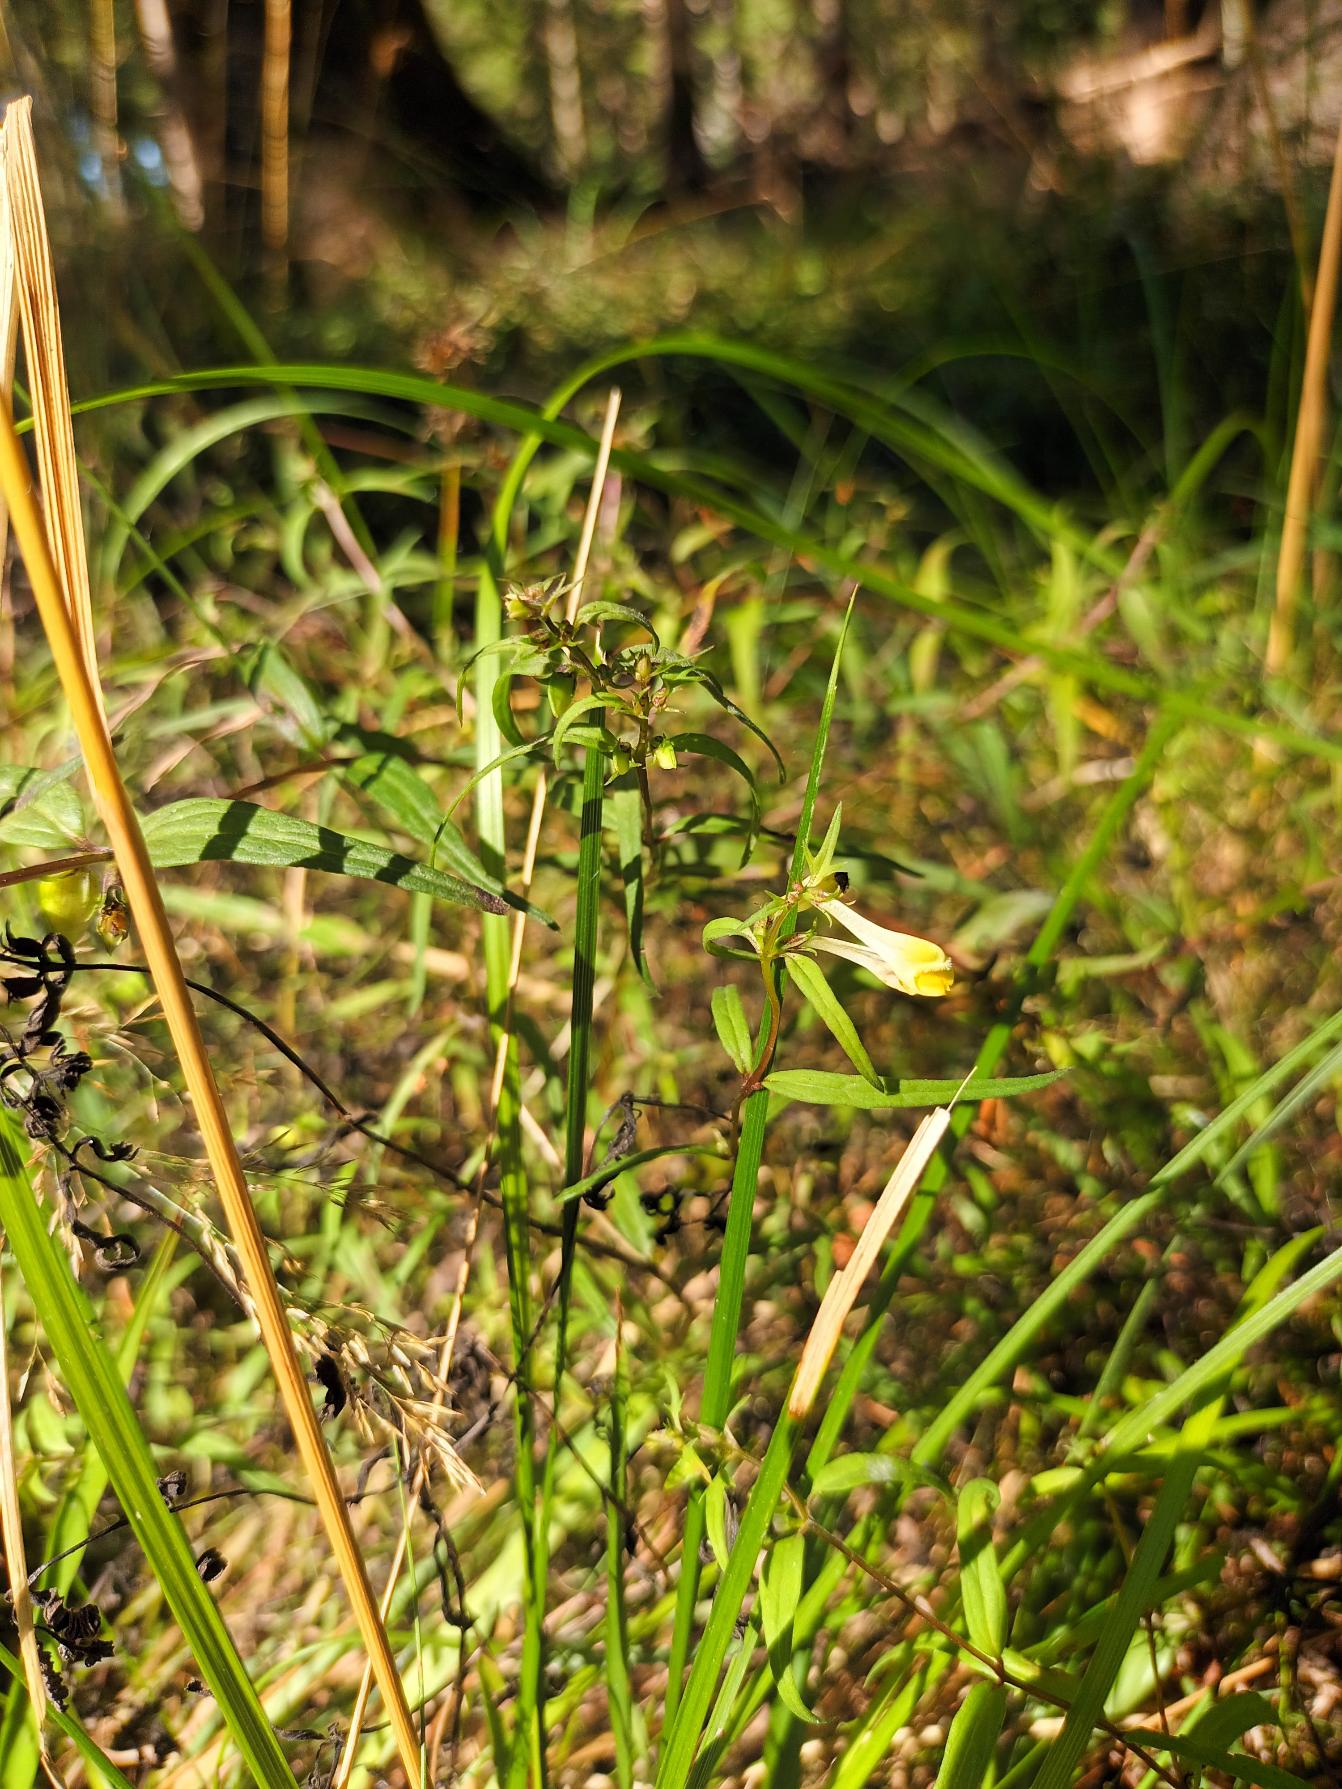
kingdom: Plantae
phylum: Tracheophyta
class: Magnoliopsida
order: Lamiales
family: Orobanchaceae
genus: Melampyrum
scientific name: Melampyrum pratense
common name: Almindelig kohvede
